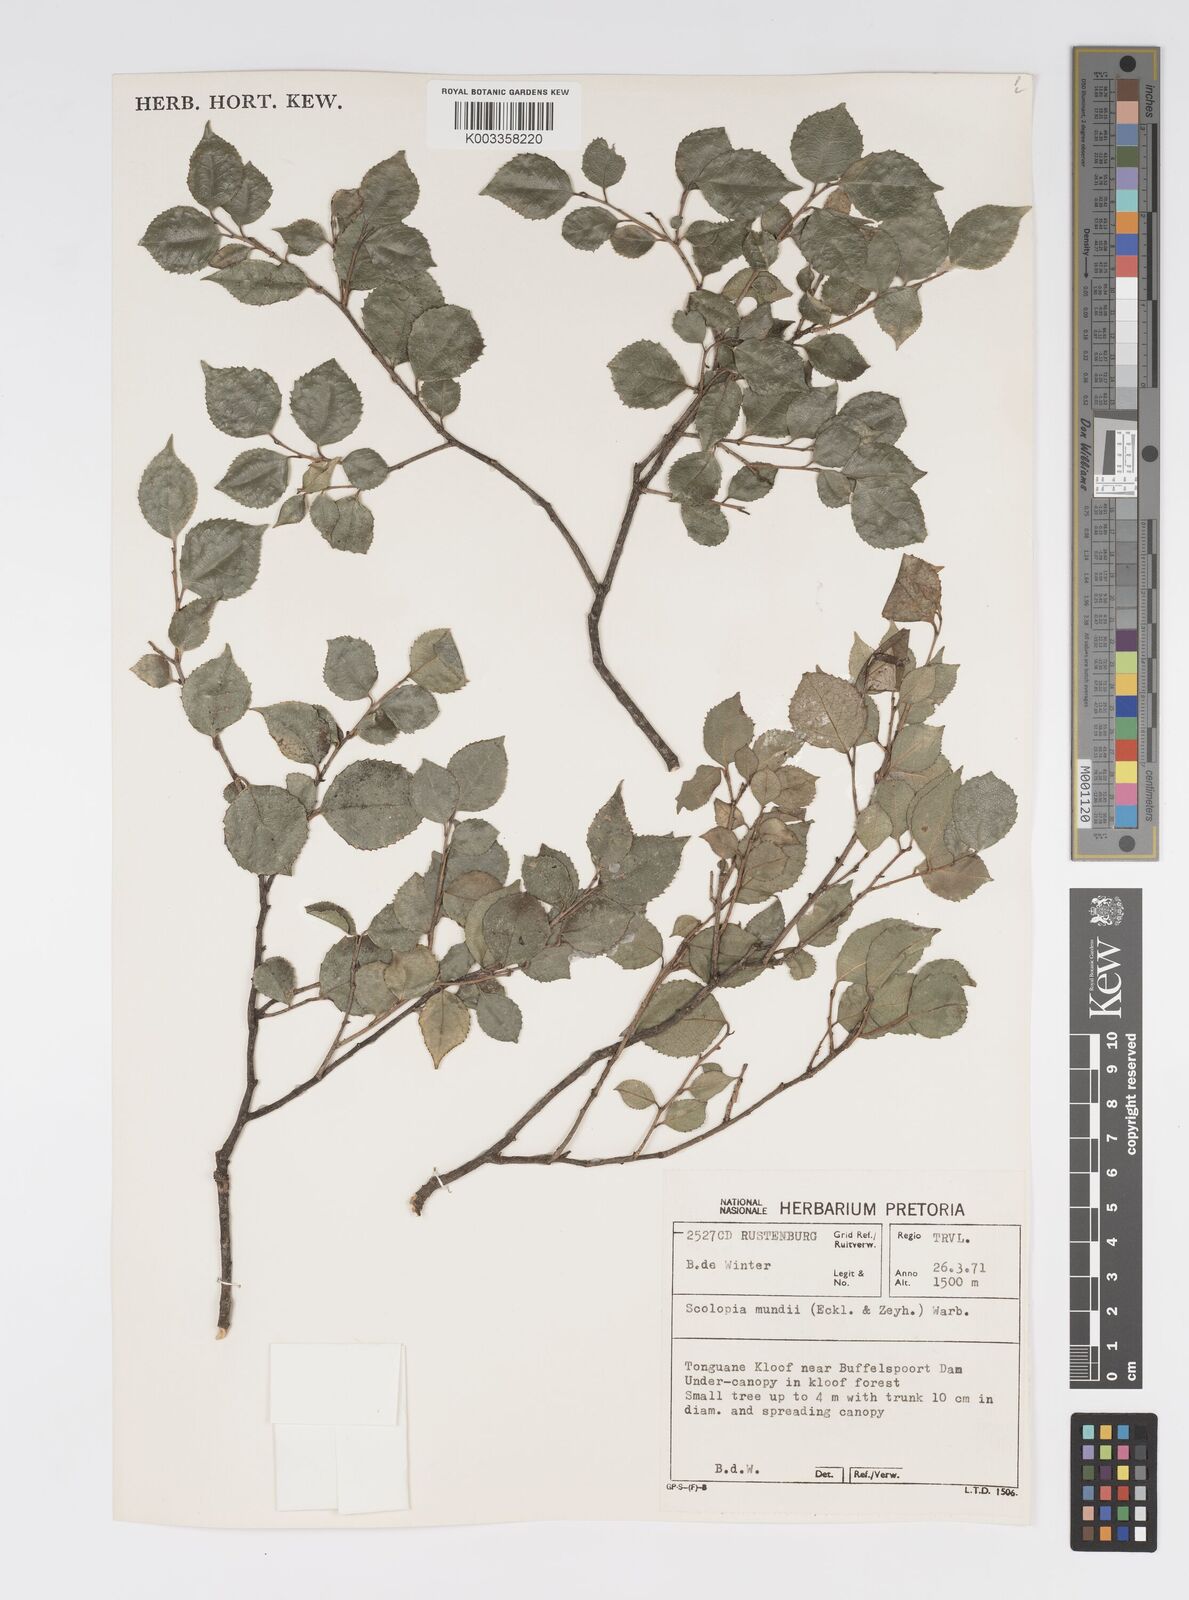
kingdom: Plantae
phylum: Tracheophyta
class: Magnoliopsida
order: Malpighiales
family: Salicaceae
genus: Scolopia
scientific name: Scolopia mundii
